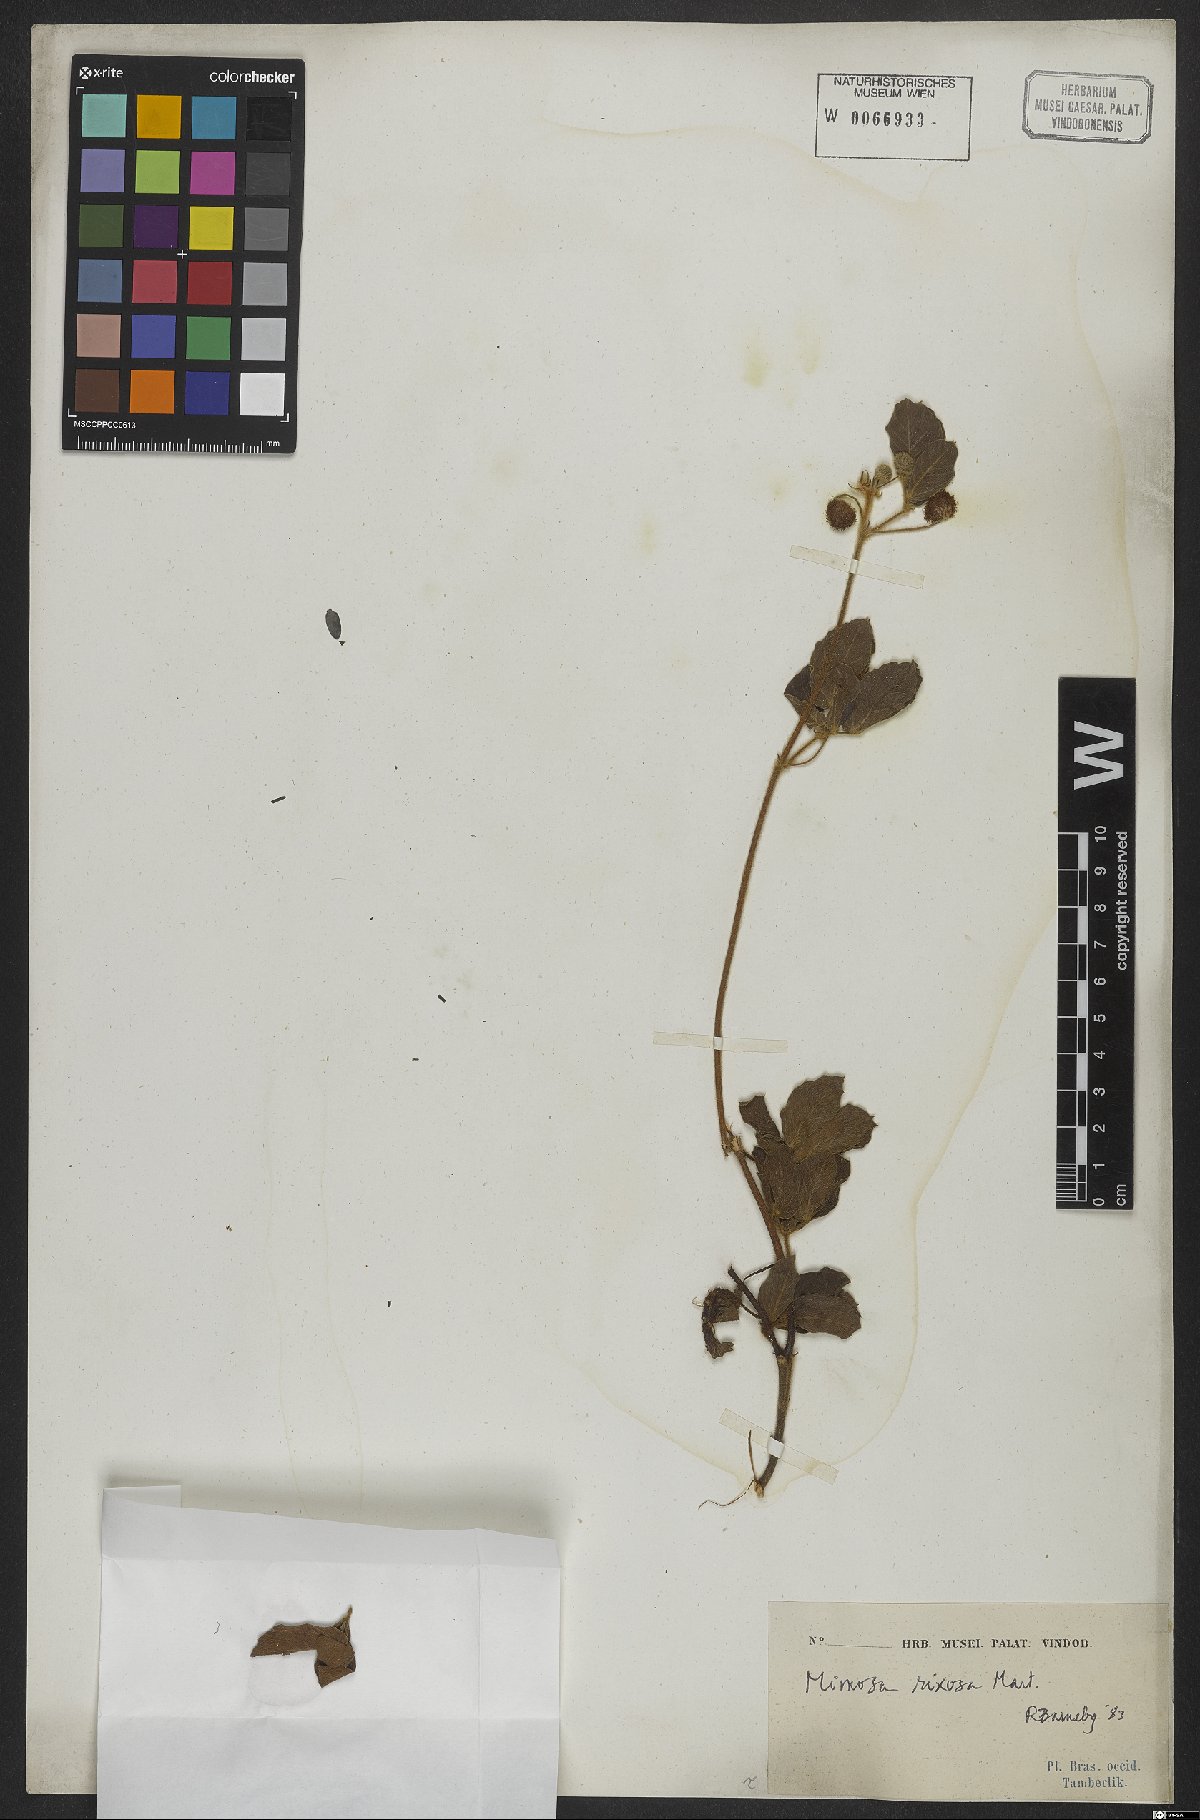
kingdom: Plantae
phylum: Tracheophyta
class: Magnoliopsida
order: Fabales
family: Fabaceae
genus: Mimosa
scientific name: Mimosa debilis
